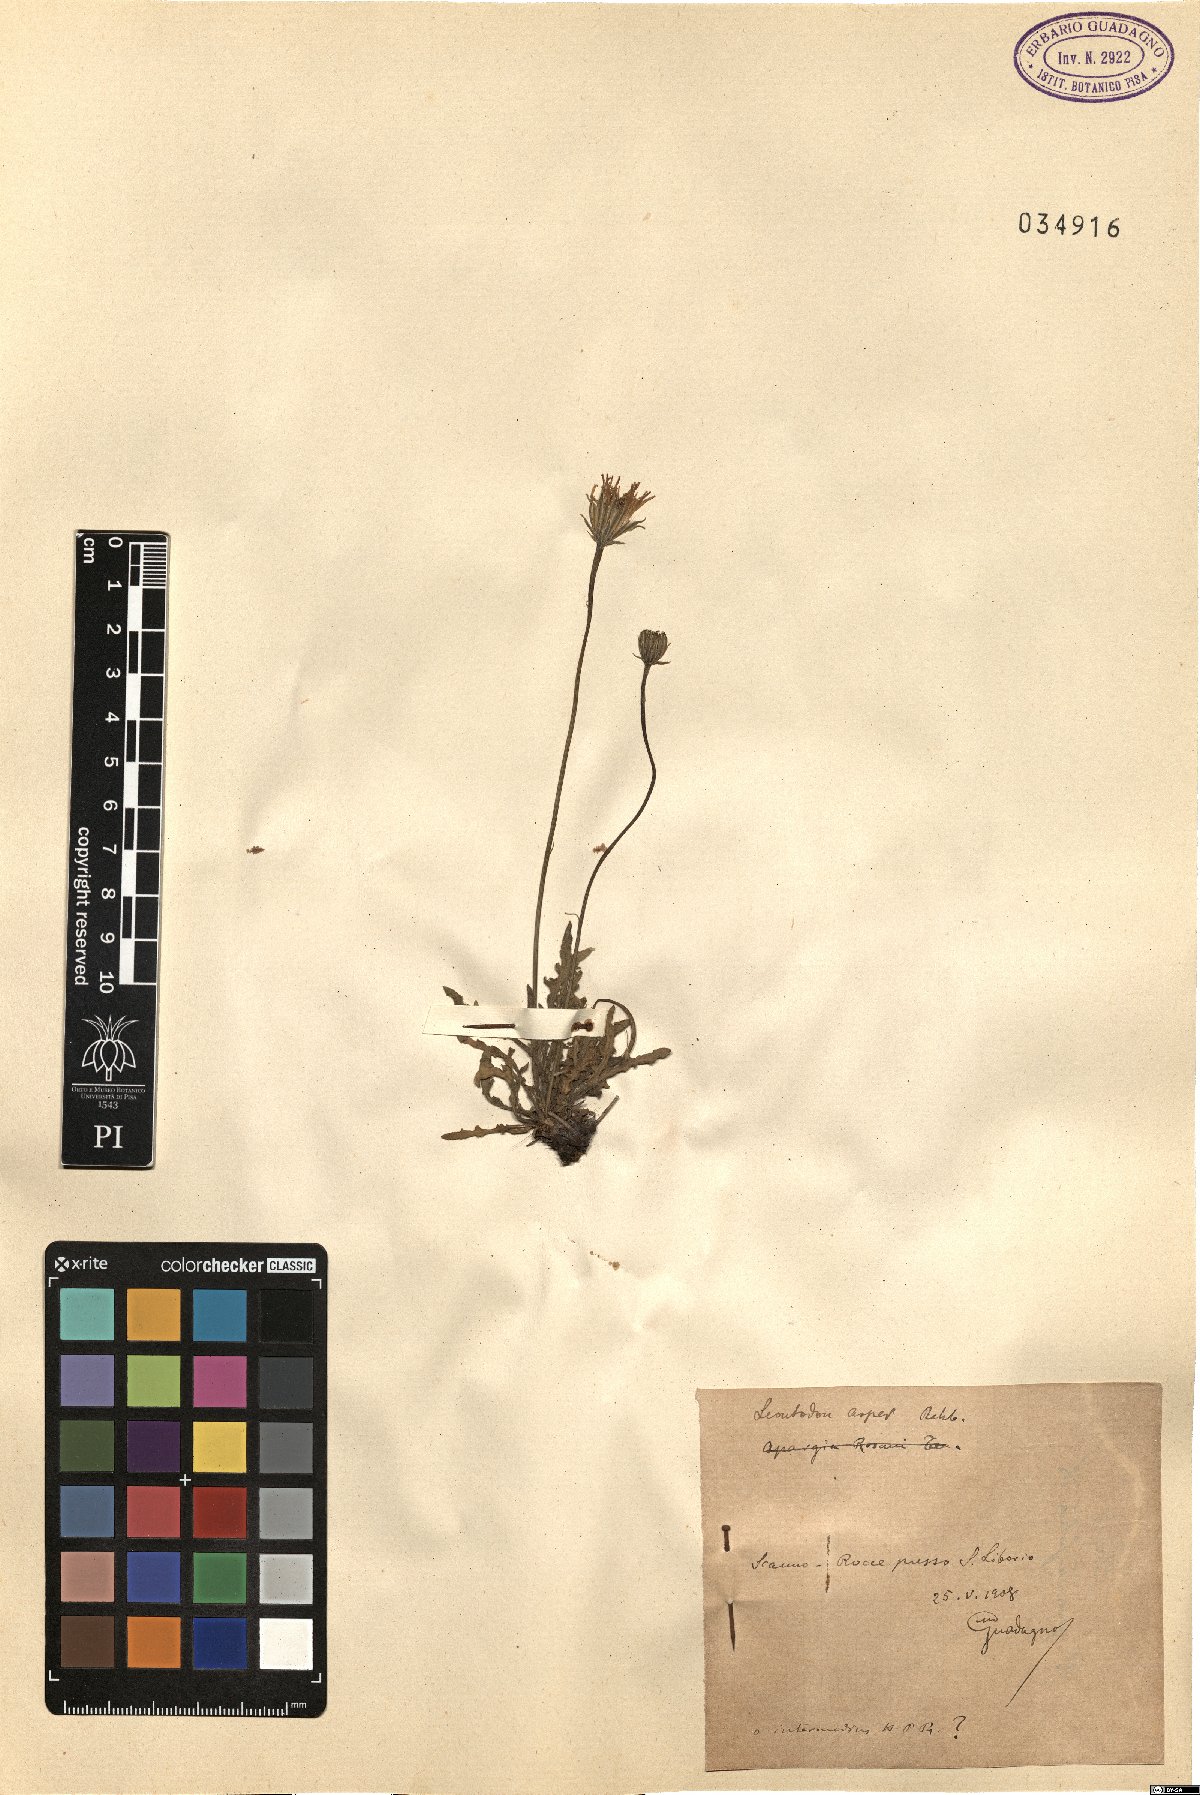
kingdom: Plantae
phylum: Tracheophyta
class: Magnoliopsida
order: Asterales
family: Asteraceae
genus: Leontodon
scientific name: Leontodon biscutellifolius
